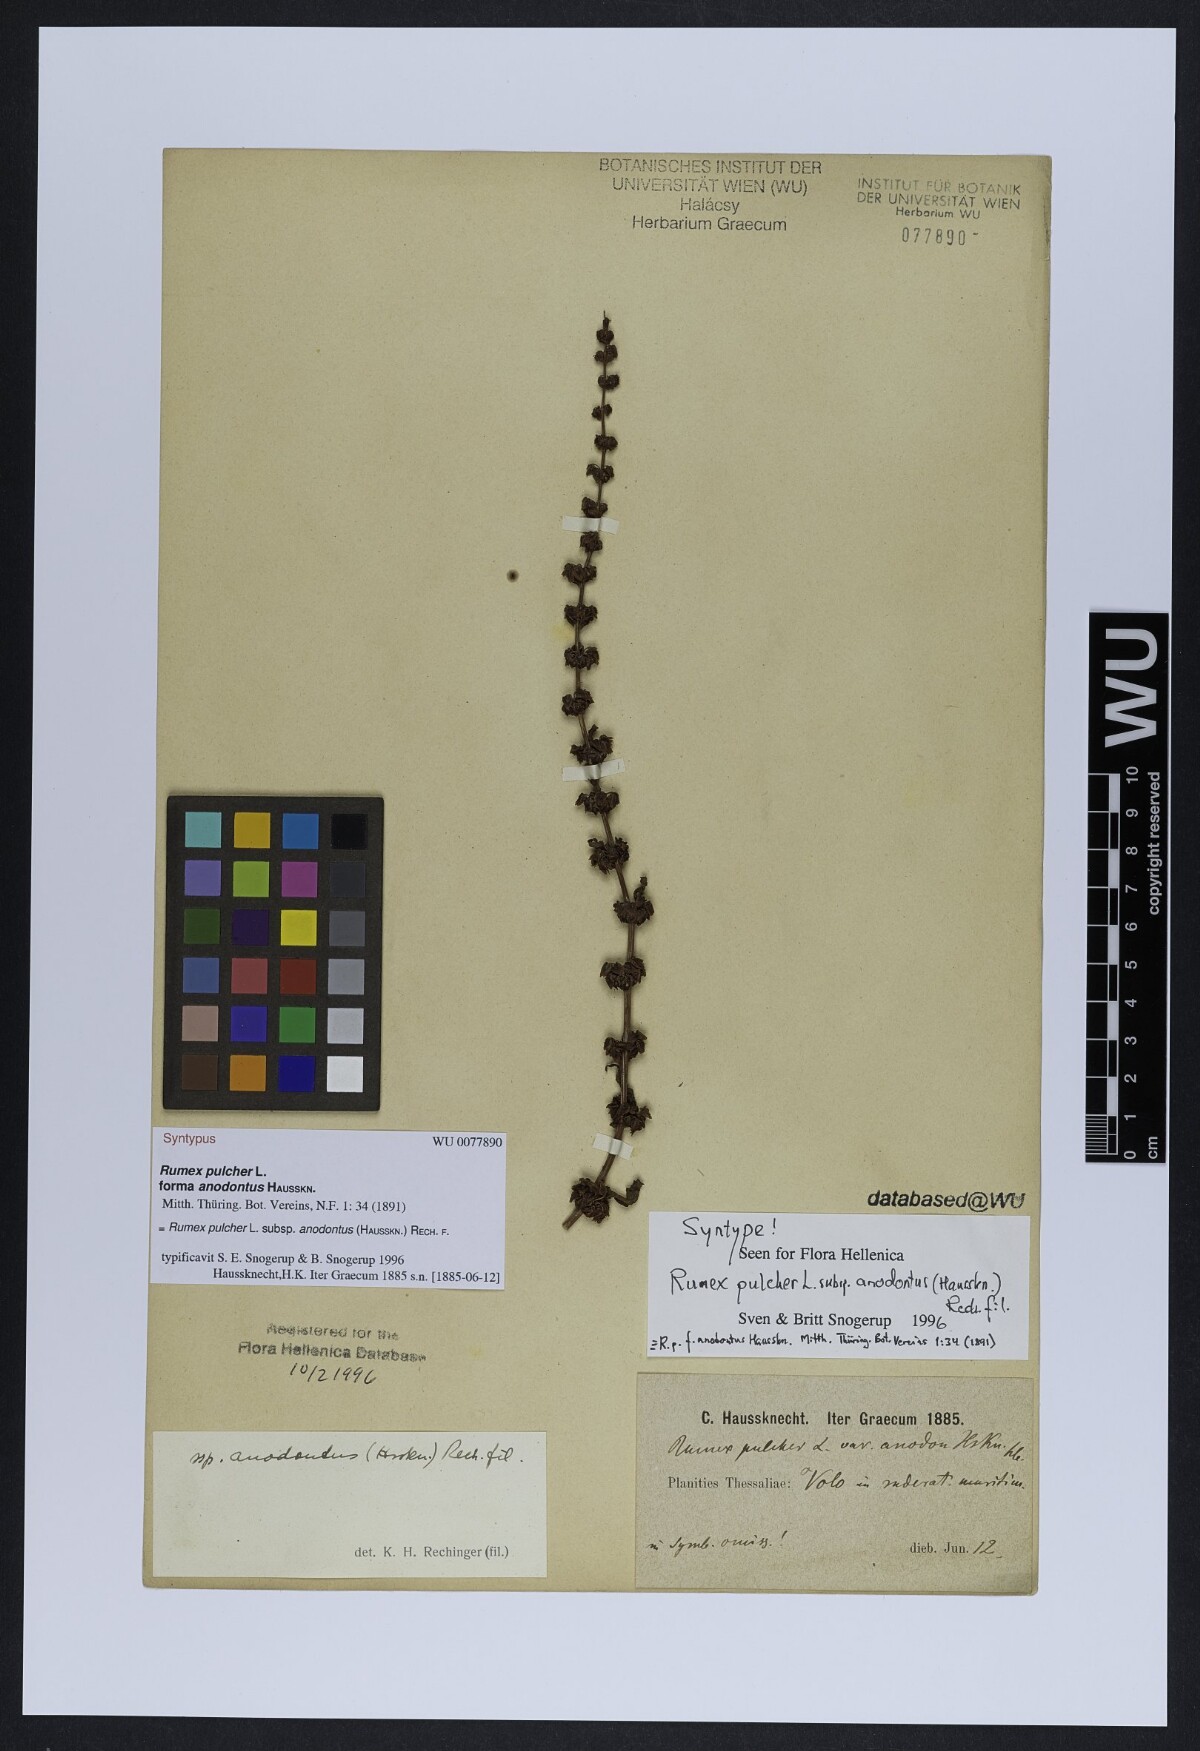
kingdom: Plantae
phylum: Tracheophyta
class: Magnoliopsida
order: Caryophyllales
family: Polygonaceae
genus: Rumex
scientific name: Rumex pulcher
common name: Fiddle dock
